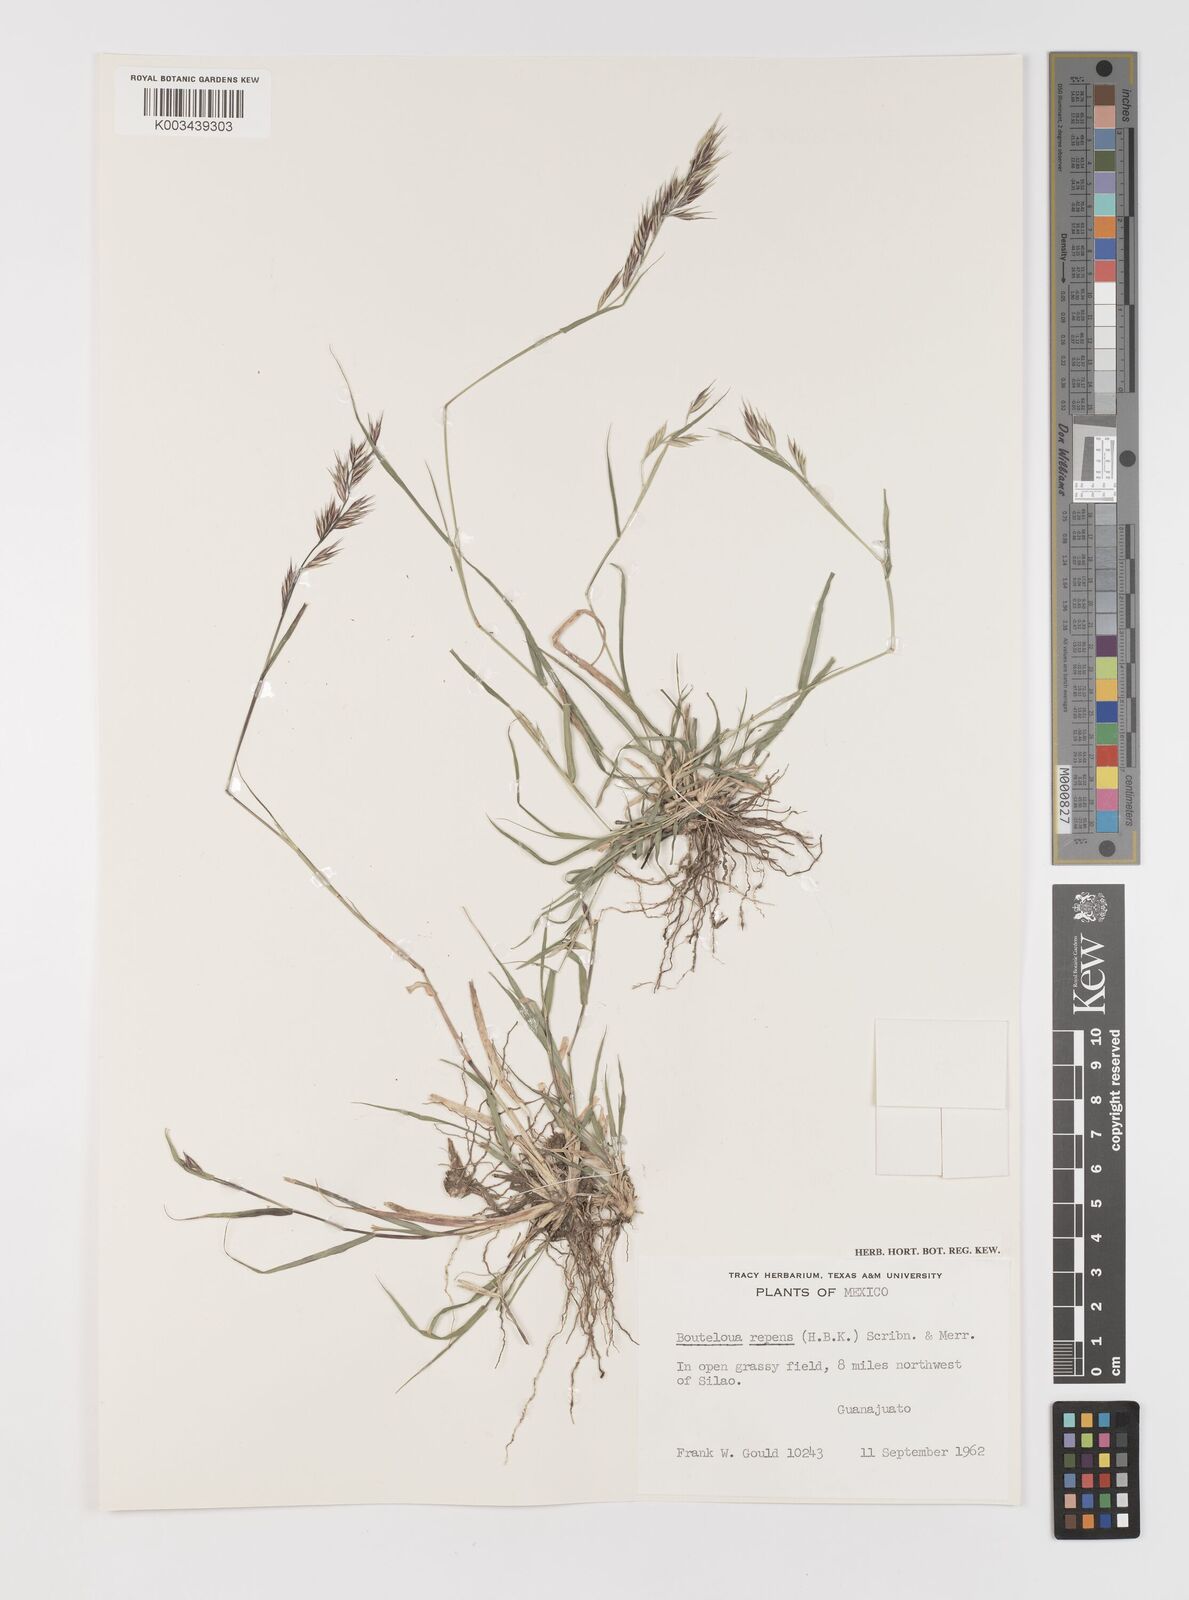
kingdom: Plantae
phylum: Tracheophyta
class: Liliopsida
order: Poales
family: Poaceae
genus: Bouteloua
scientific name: Bouteloua repens
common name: Slender grama
